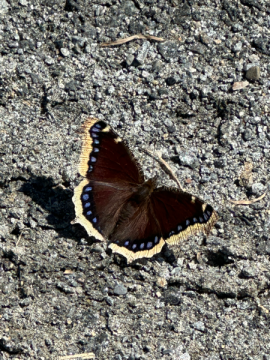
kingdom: Animalia
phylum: Arthropoda
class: Insecta
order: Lepidoptera
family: Nymphalidae
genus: Nymphalis
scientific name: Nymphalis antiopa
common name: Mourning Cloak
